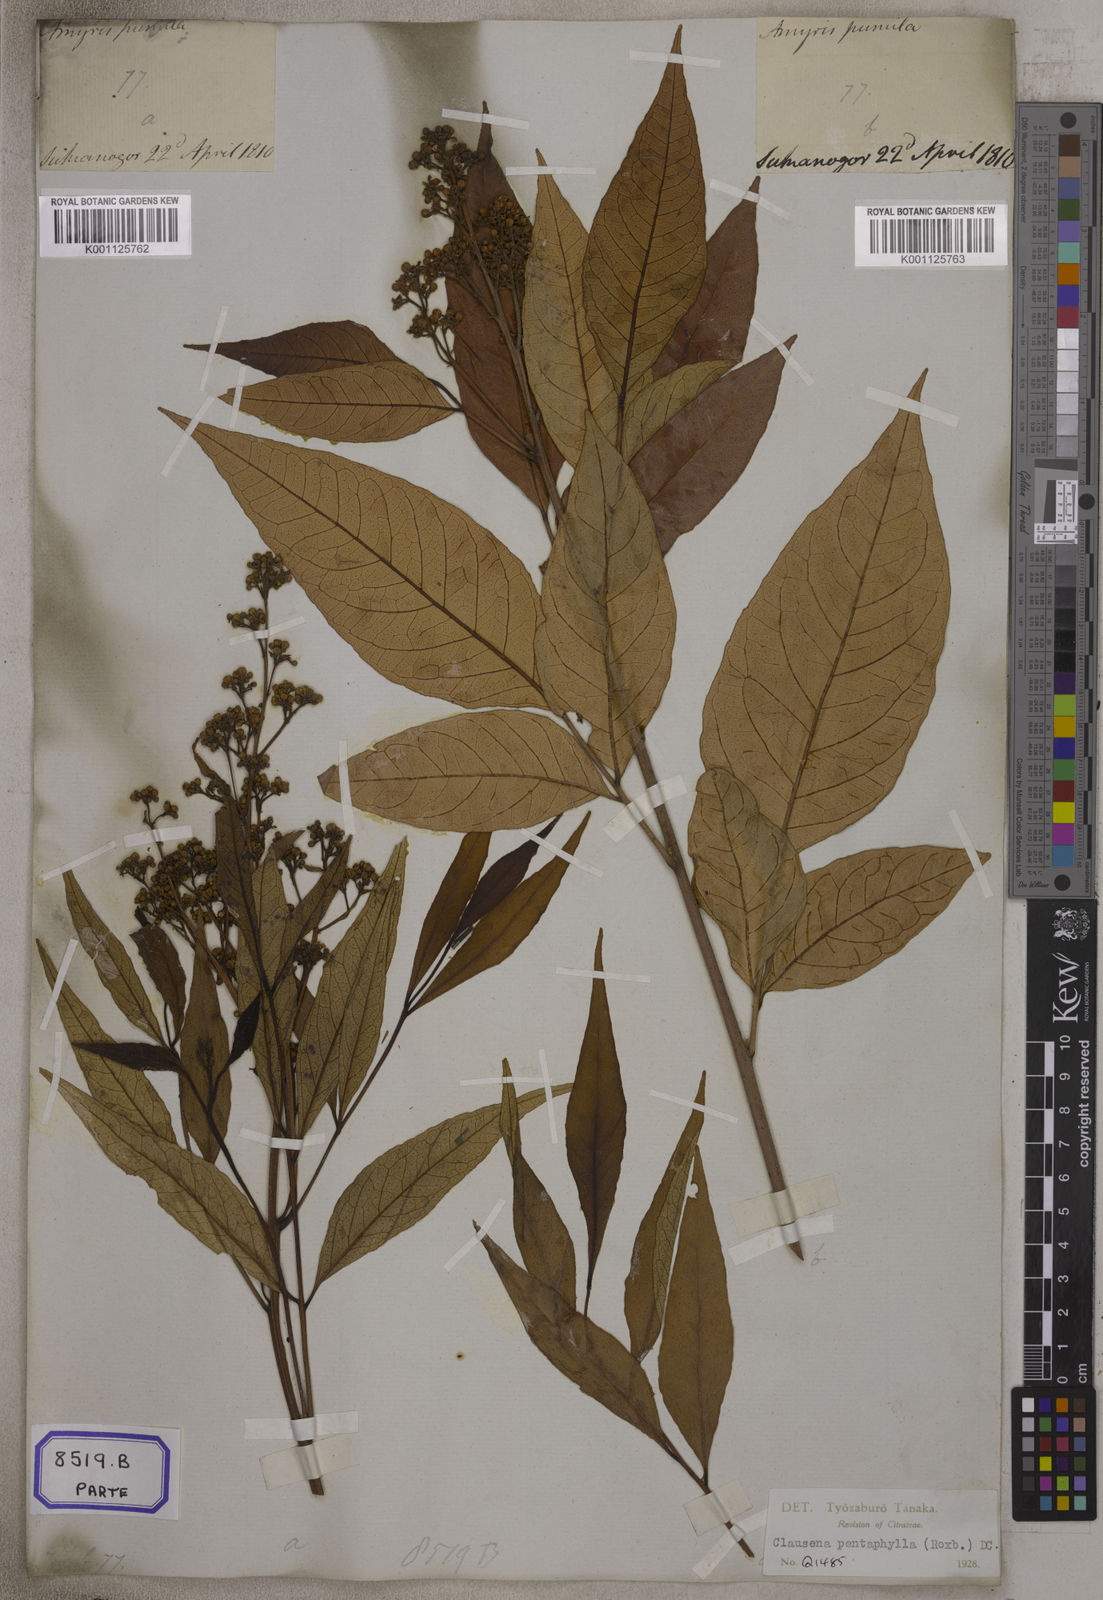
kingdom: Plantae
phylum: Tracheophyta
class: Magnoliopsida
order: Sapindales
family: Rutaceae
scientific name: Rutaceae
